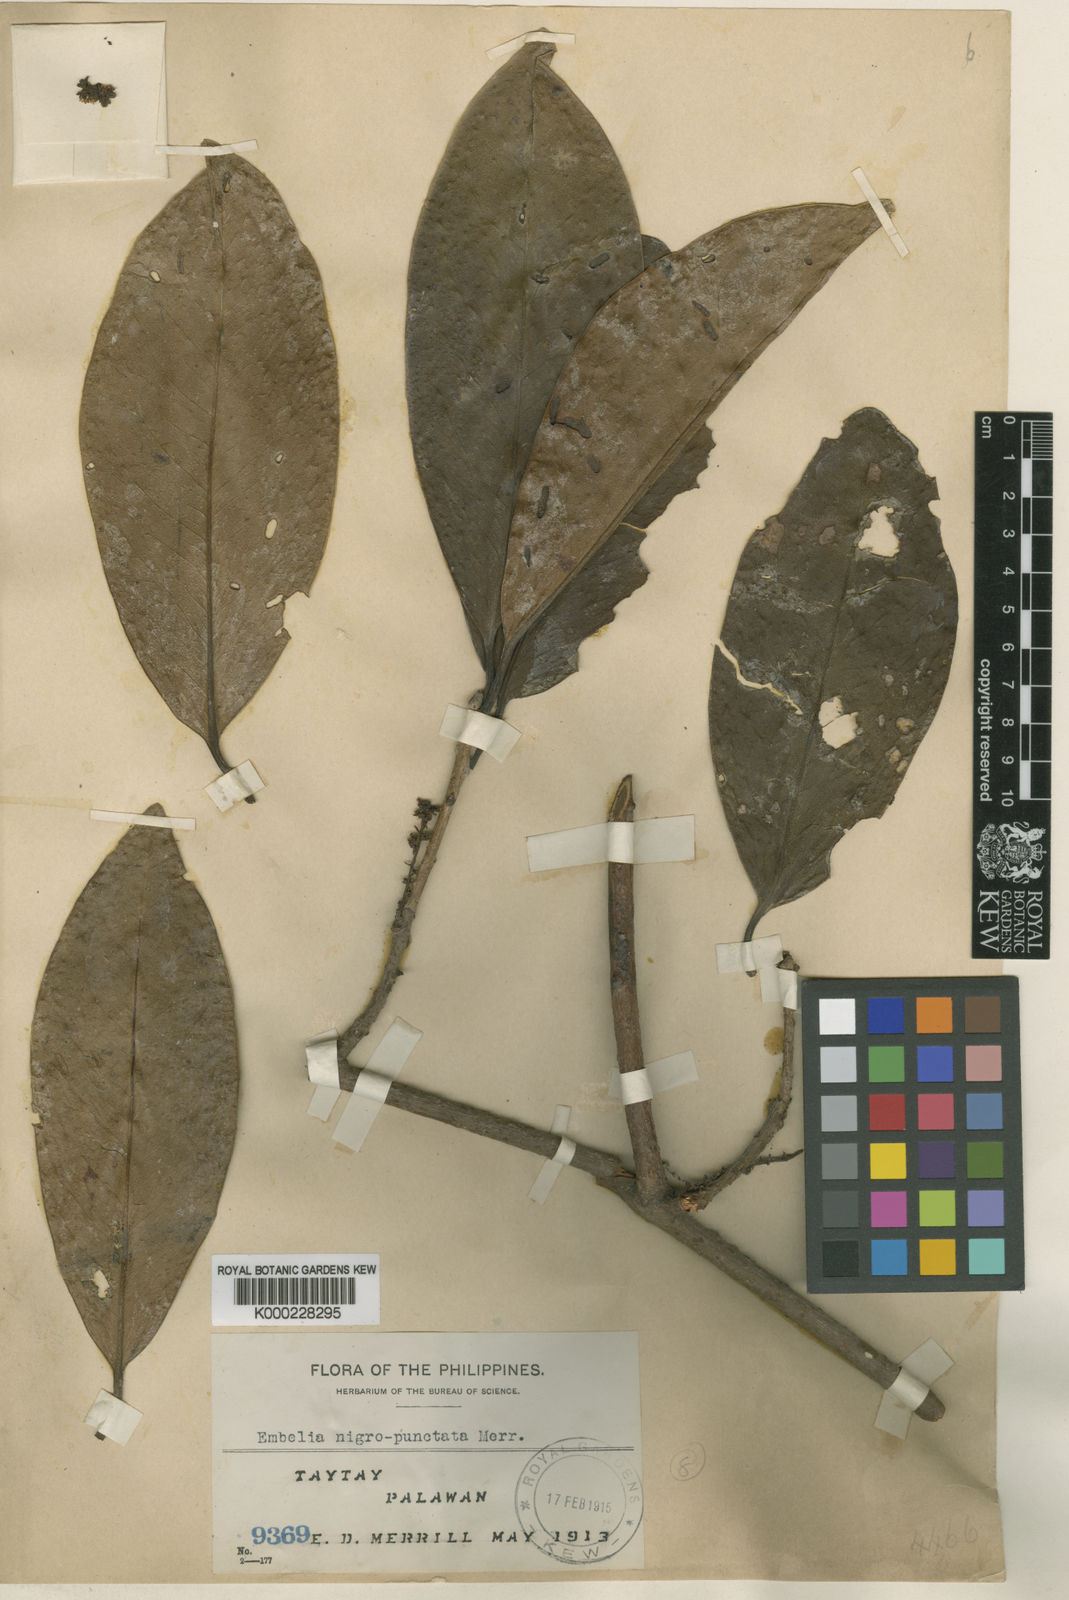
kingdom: Plantae
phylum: Tracheophyta
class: Magnoliopsida
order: Ericales
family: Primulaceae
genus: Embelia
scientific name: Embelia nigropunctata
